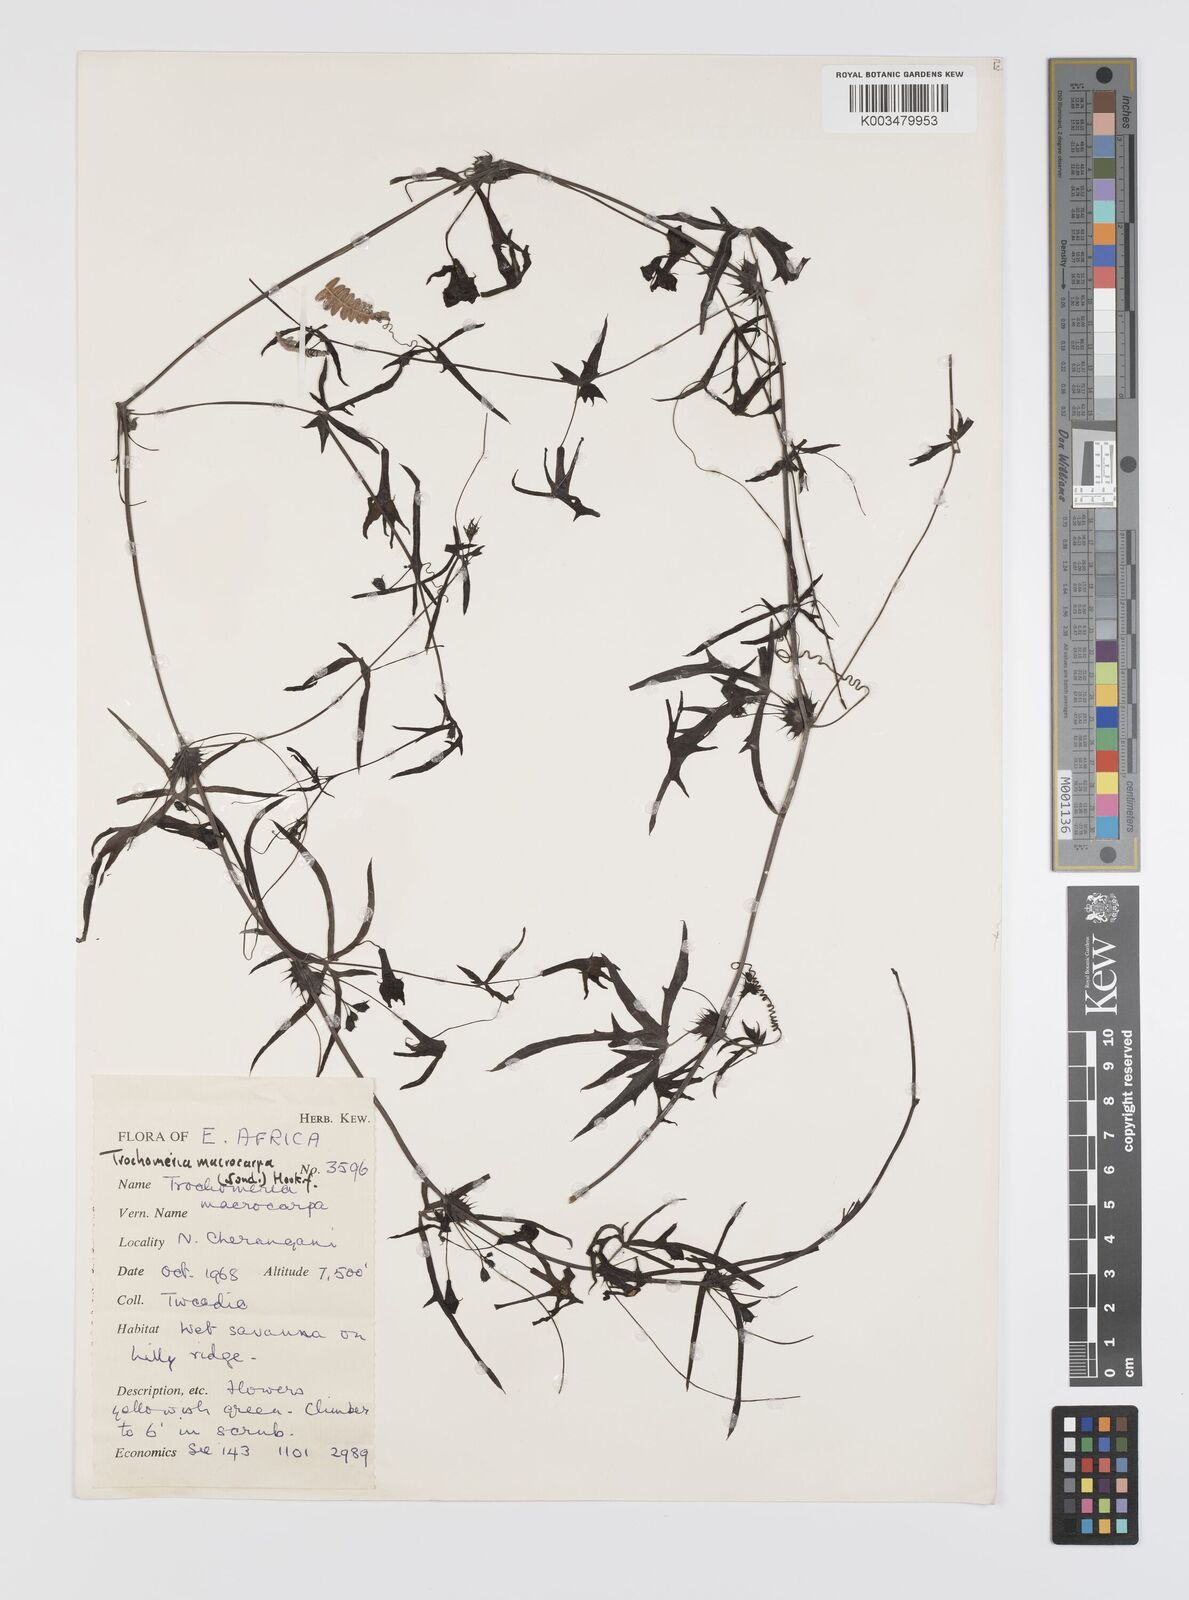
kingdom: Plantae
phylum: Tracheophyta
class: Magnoliopsida
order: Cucurbitales
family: Cucurbitaceae
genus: Trochomeria
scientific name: Trochomeria macrocarpa
